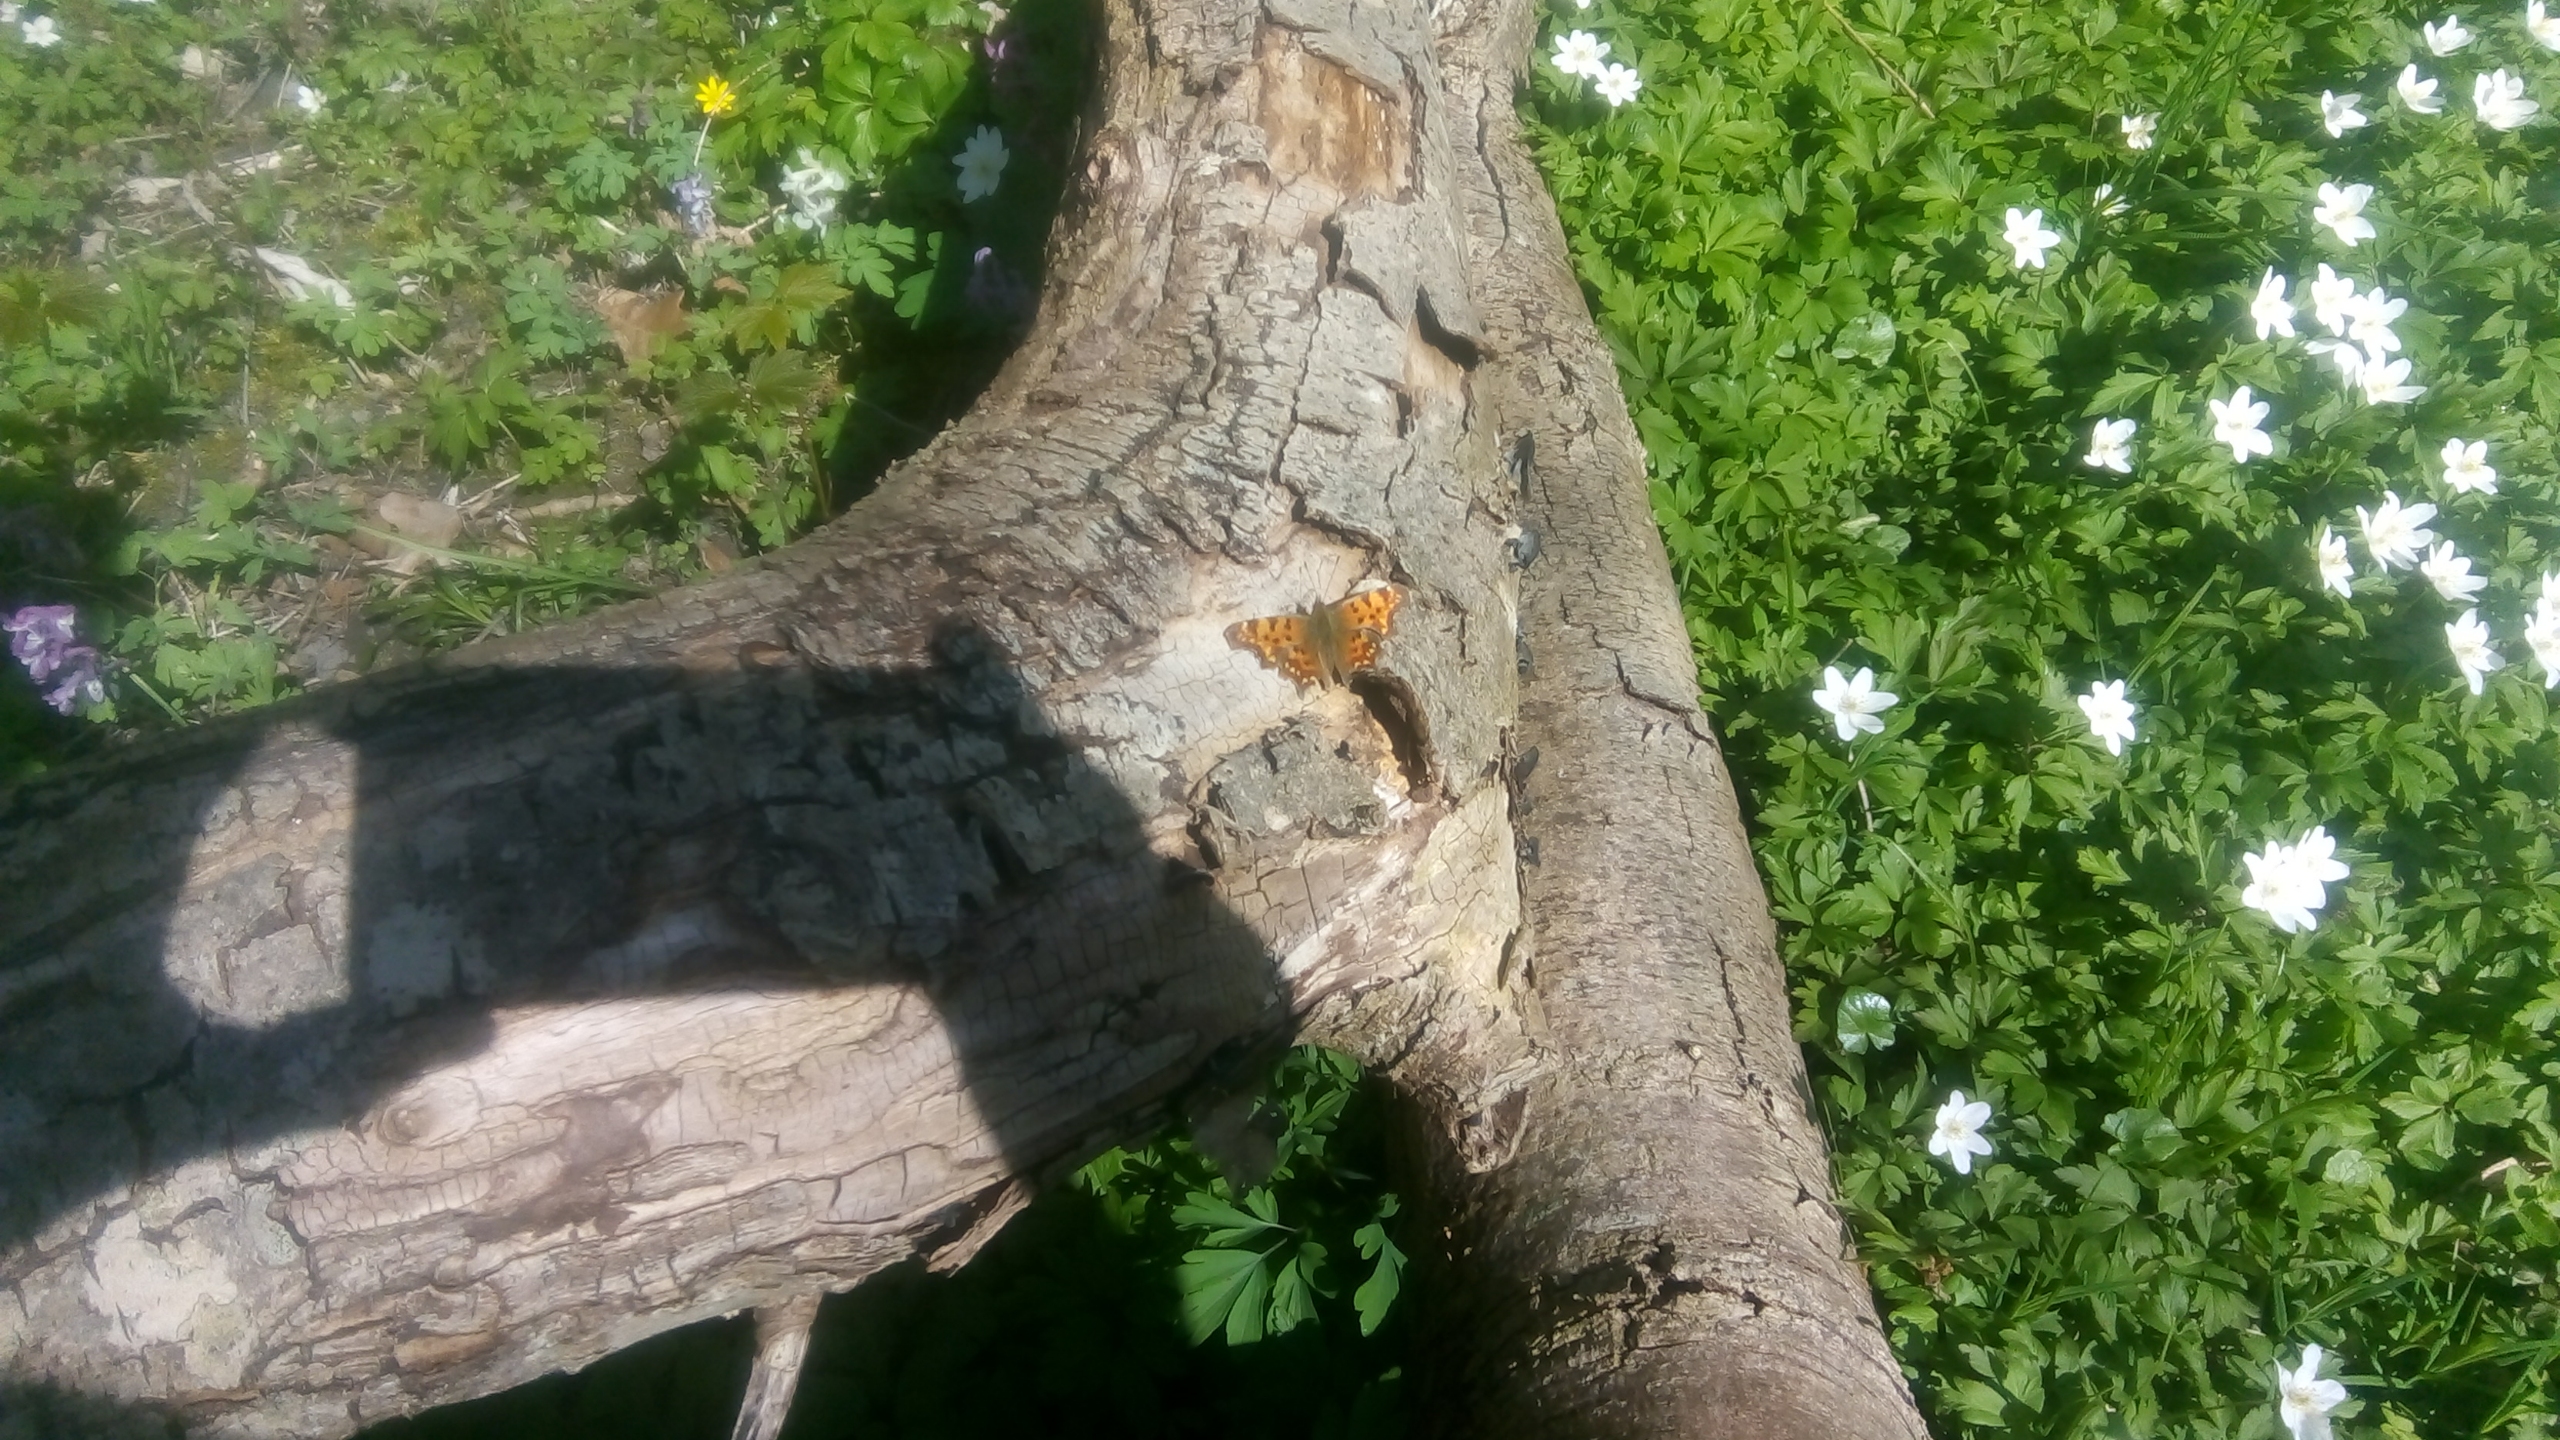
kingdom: Animalia
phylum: Arthropoda
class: Insecta
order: Lepidoptera
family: Nymphalidae
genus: Polygonia
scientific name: Polygonia c-album
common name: Det hvide C
